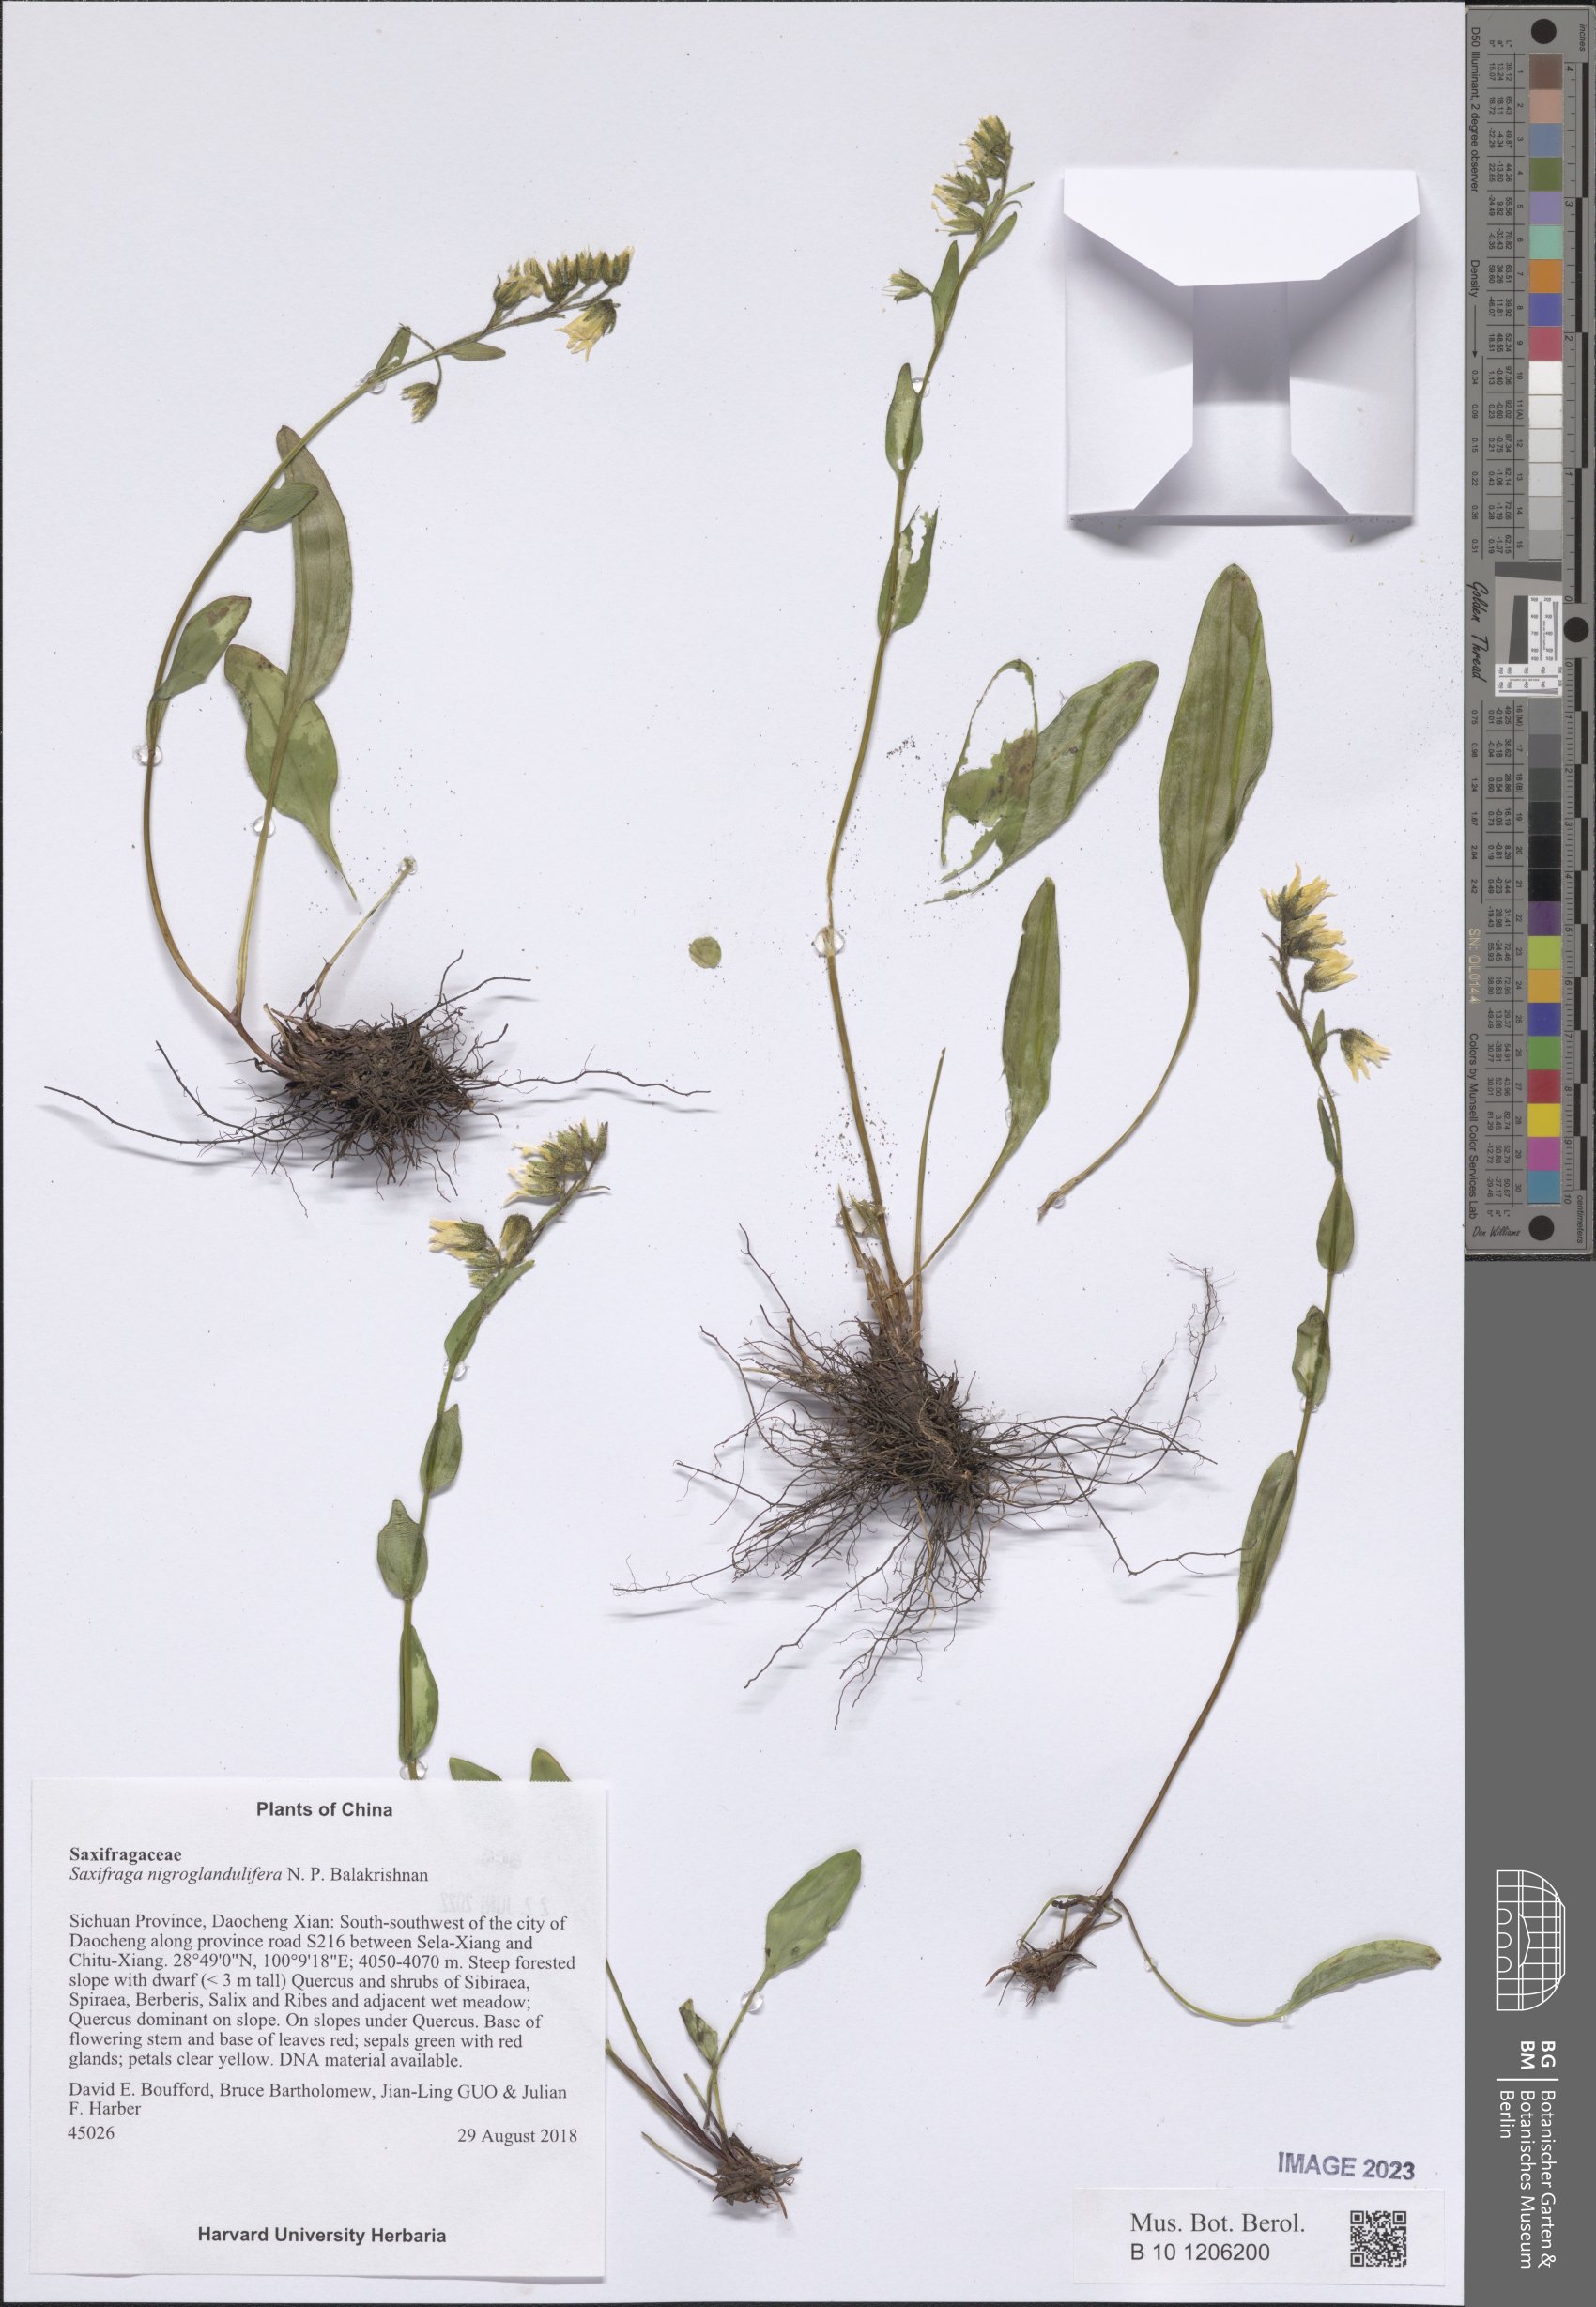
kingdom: Plantae
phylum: Tracheophyta
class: Magnoliopsida
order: Saxifragales
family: Saxifragaceae
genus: Saxifraga
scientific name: Saxifraga nigroglandulifera
